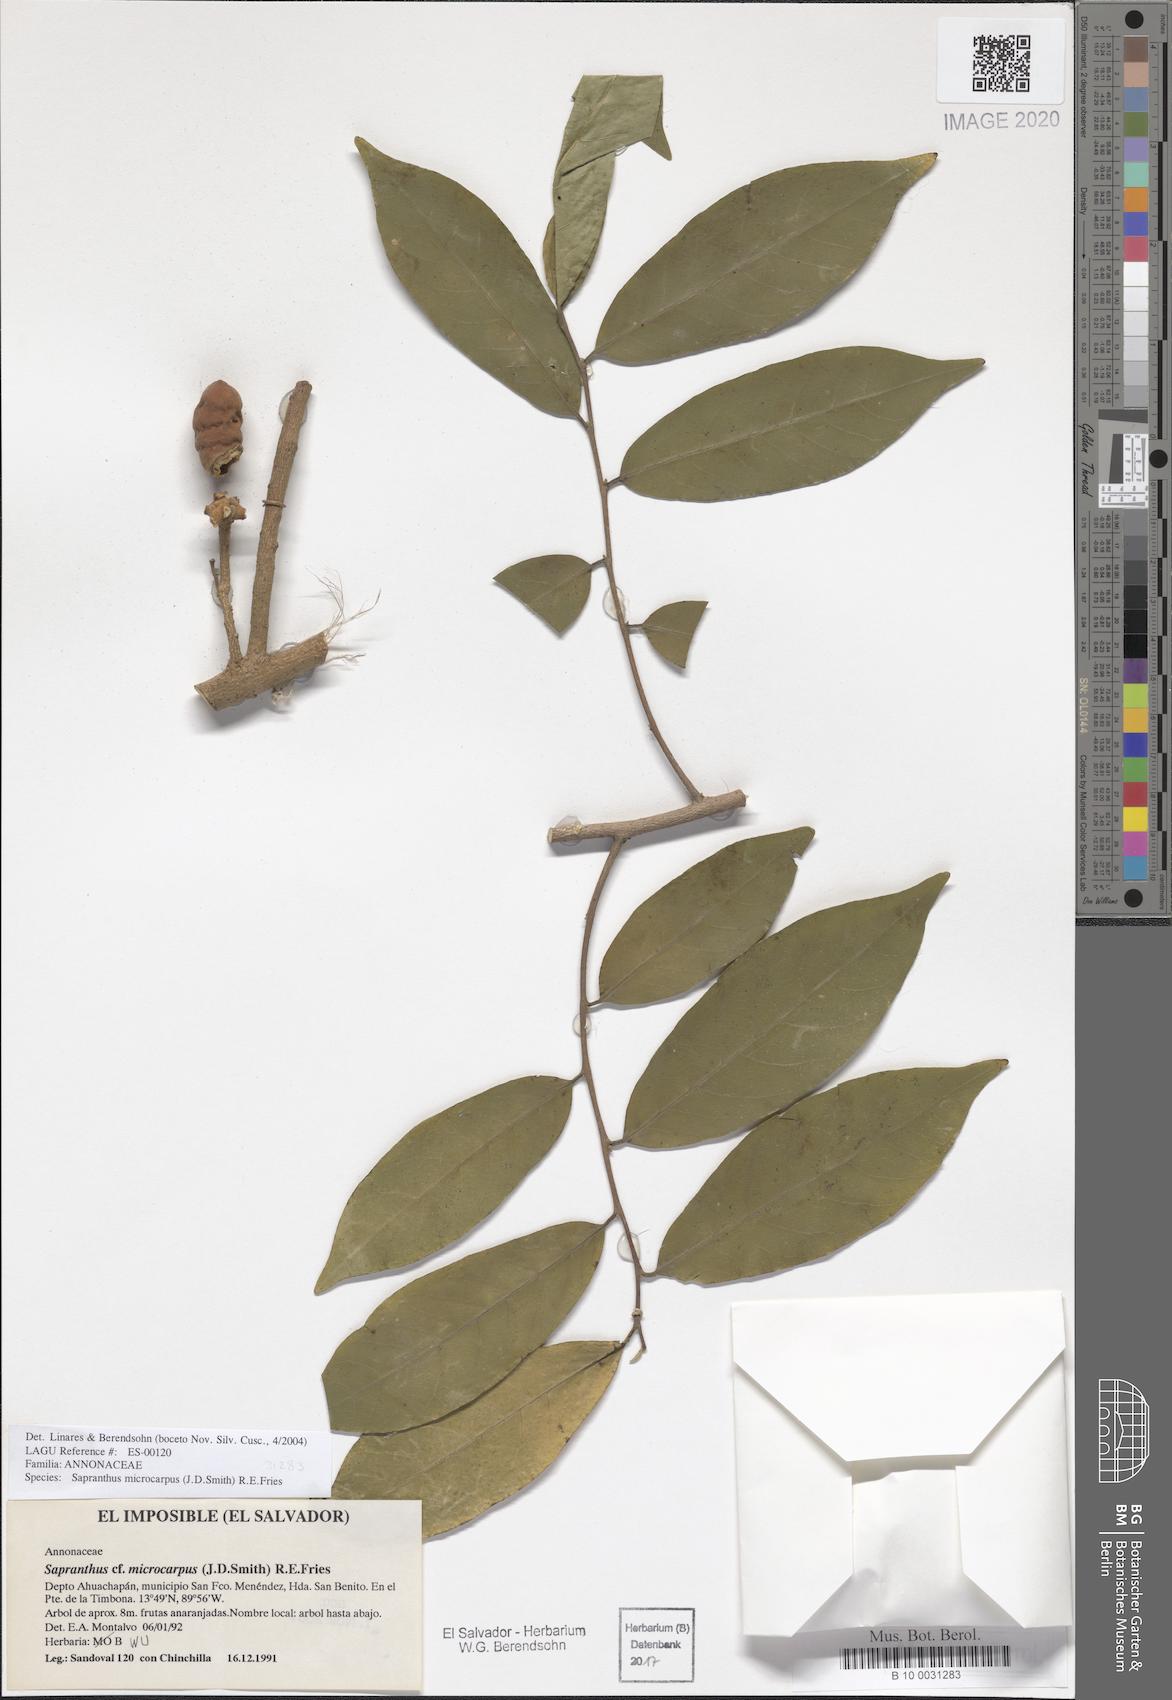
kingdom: Plantae
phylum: Tracheophyta
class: Magnoliopsida
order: Magnoliales
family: Annonaceae
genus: Sapranthus
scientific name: Sapranthus microcarpus
